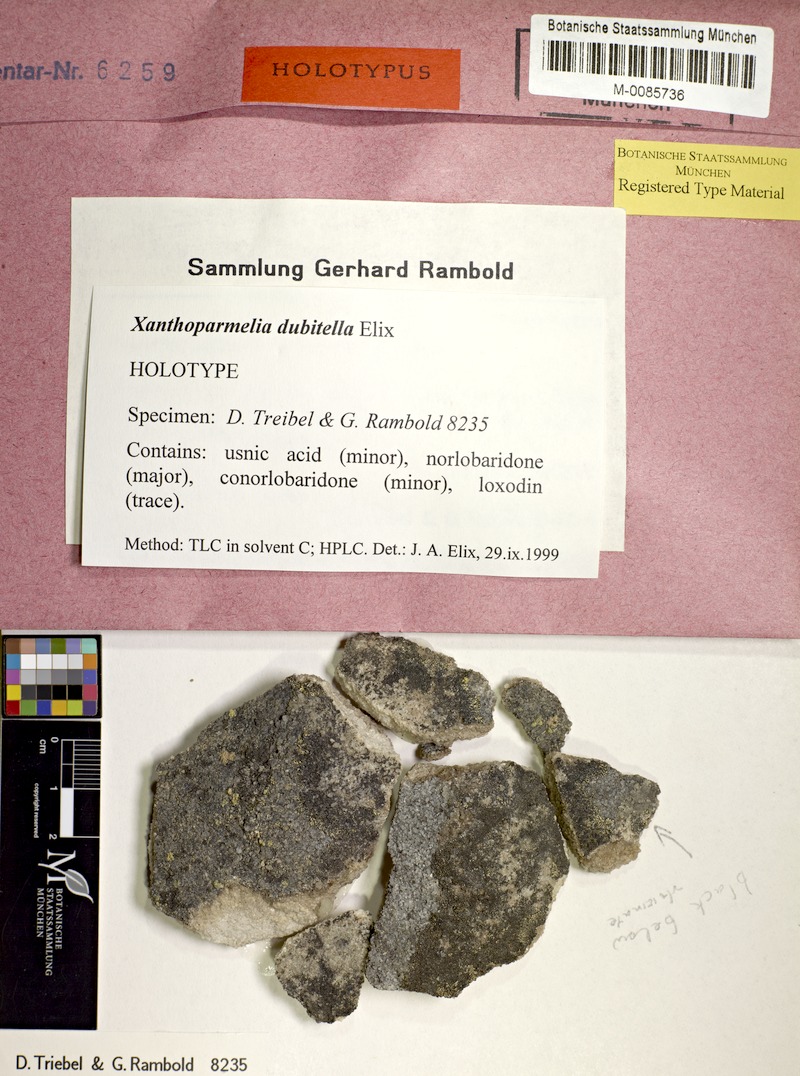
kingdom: Fungi
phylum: Ascomycota
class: Lecanoromycetes
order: Lecanorales
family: Parmeliaceae
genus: Xanthoparmelia
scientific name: Xanthoparmelia dubitella
